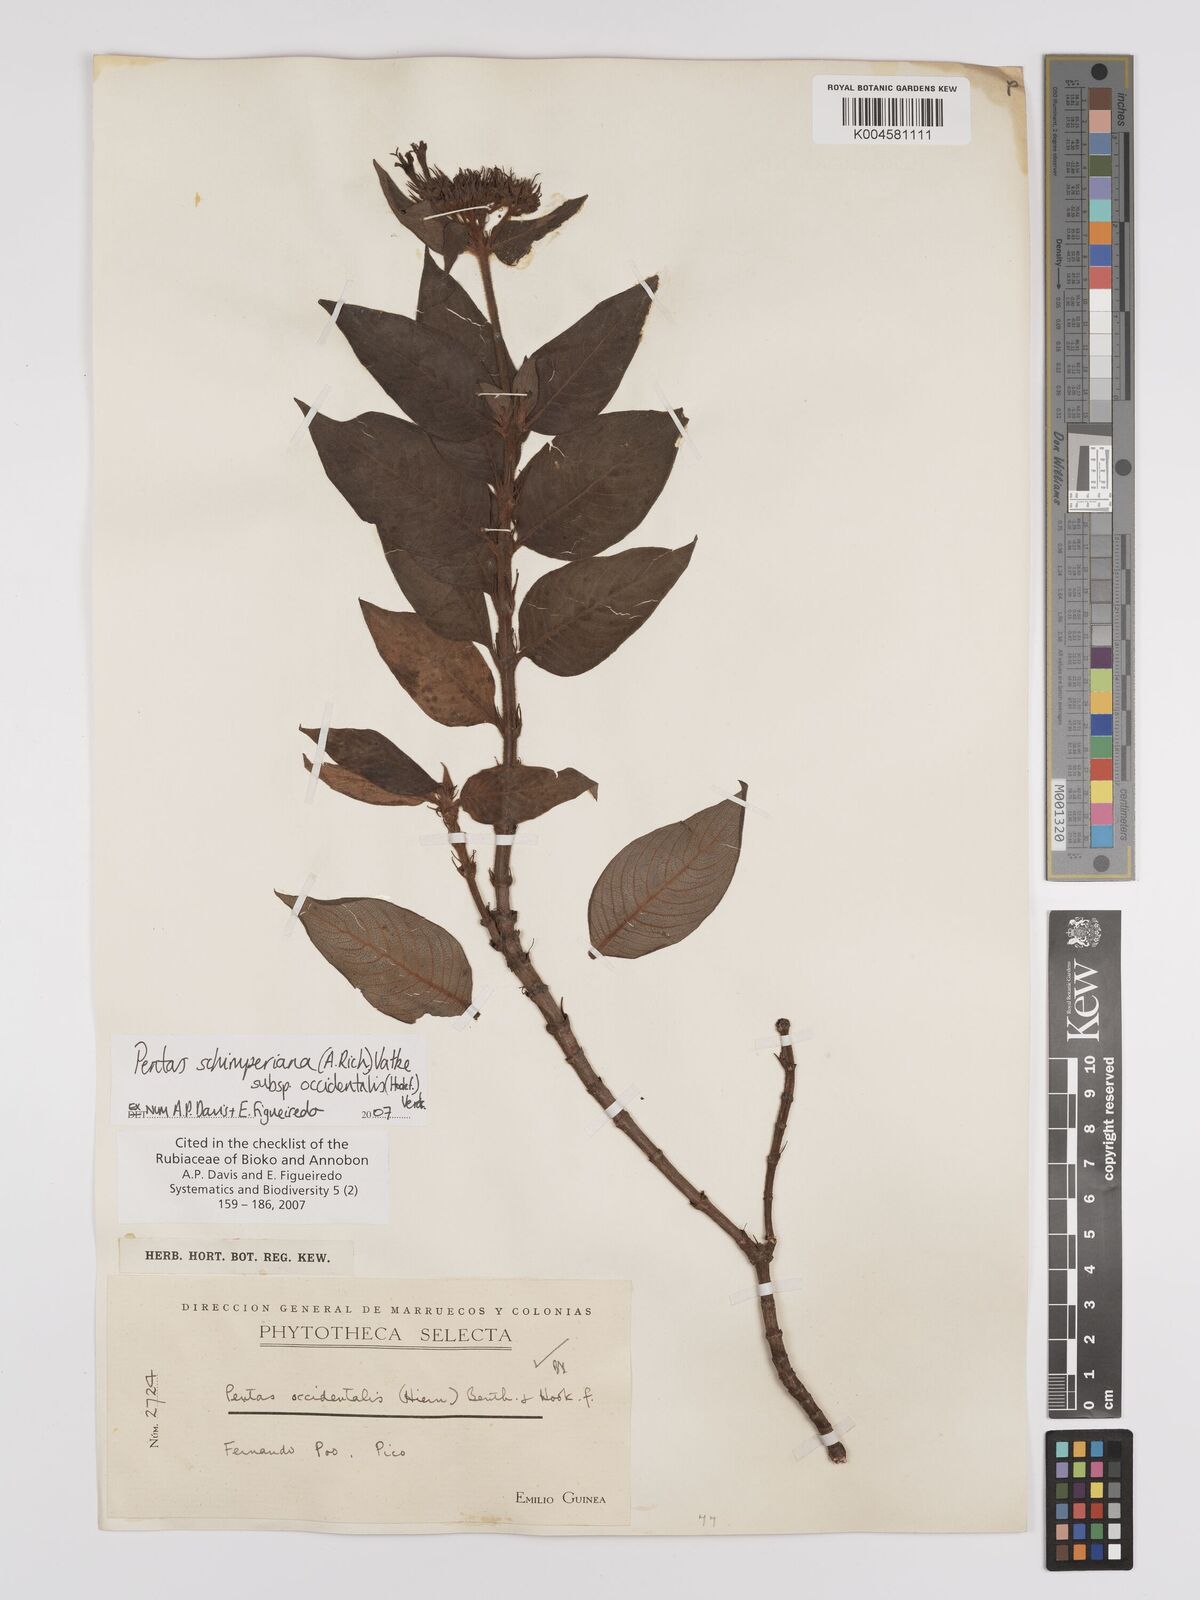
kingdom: Plantae
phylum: Tracheophyta
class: Magnoliopsida
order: Gentianales
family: Rubiaceae
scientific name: Rubiaceae
